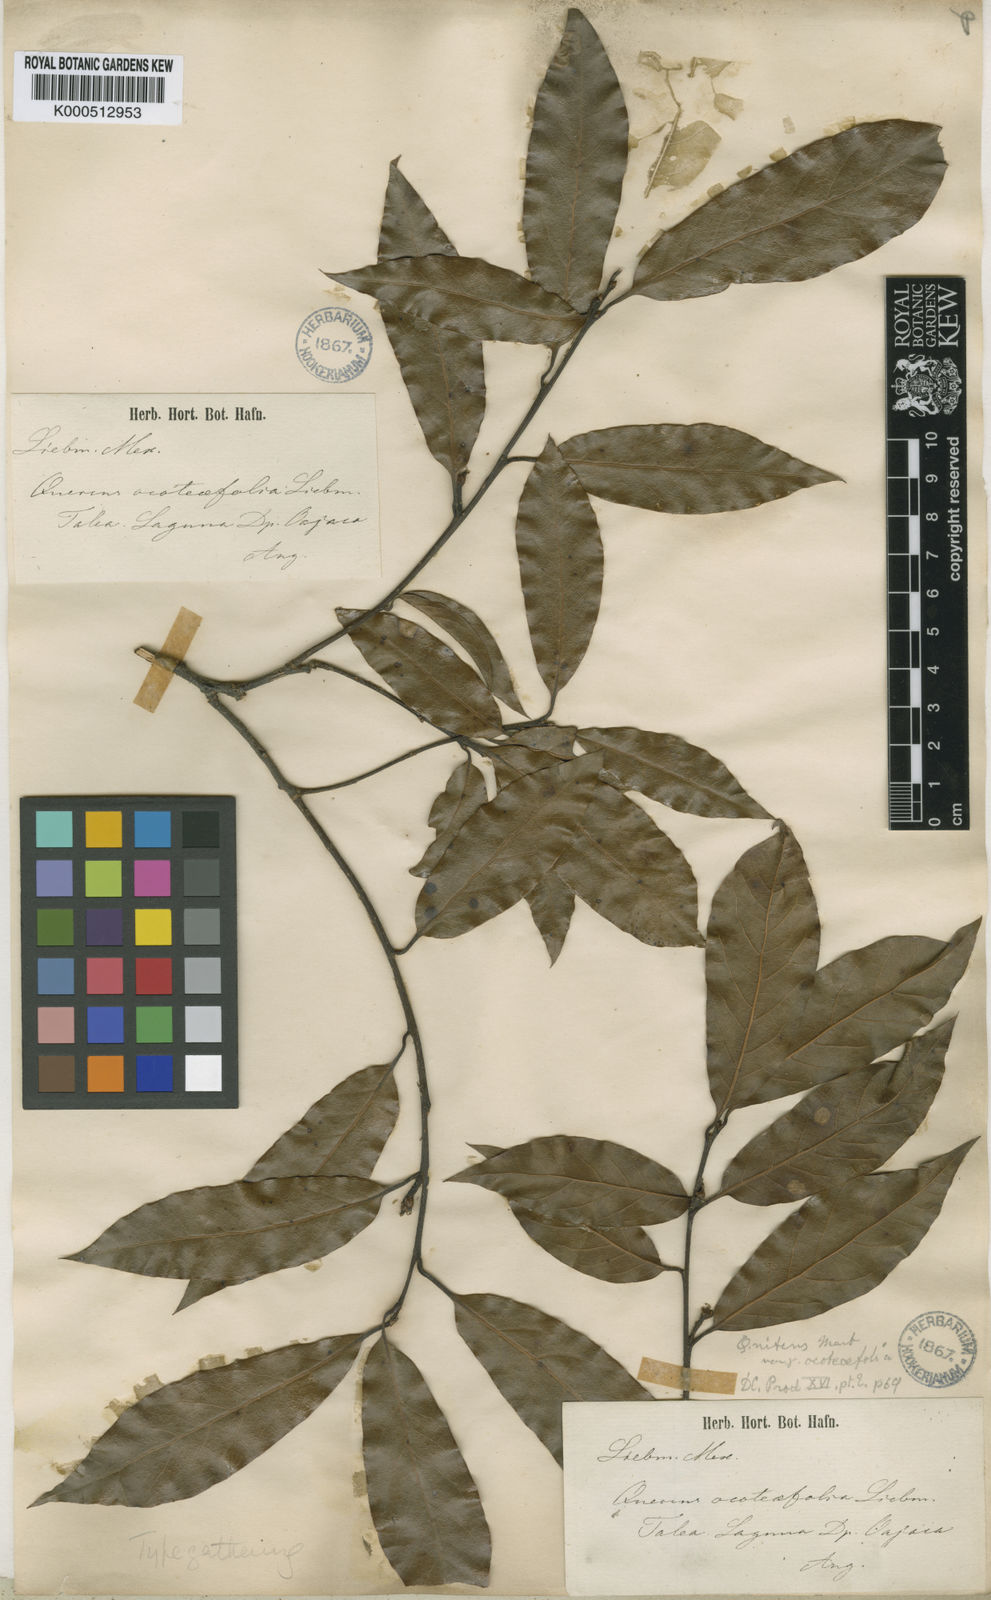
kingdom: Plantae
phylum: Tracheophyta
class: Magnoliopsida
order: Fagales
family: Fagaceae
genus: Quercus
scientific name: Quercus laurina
